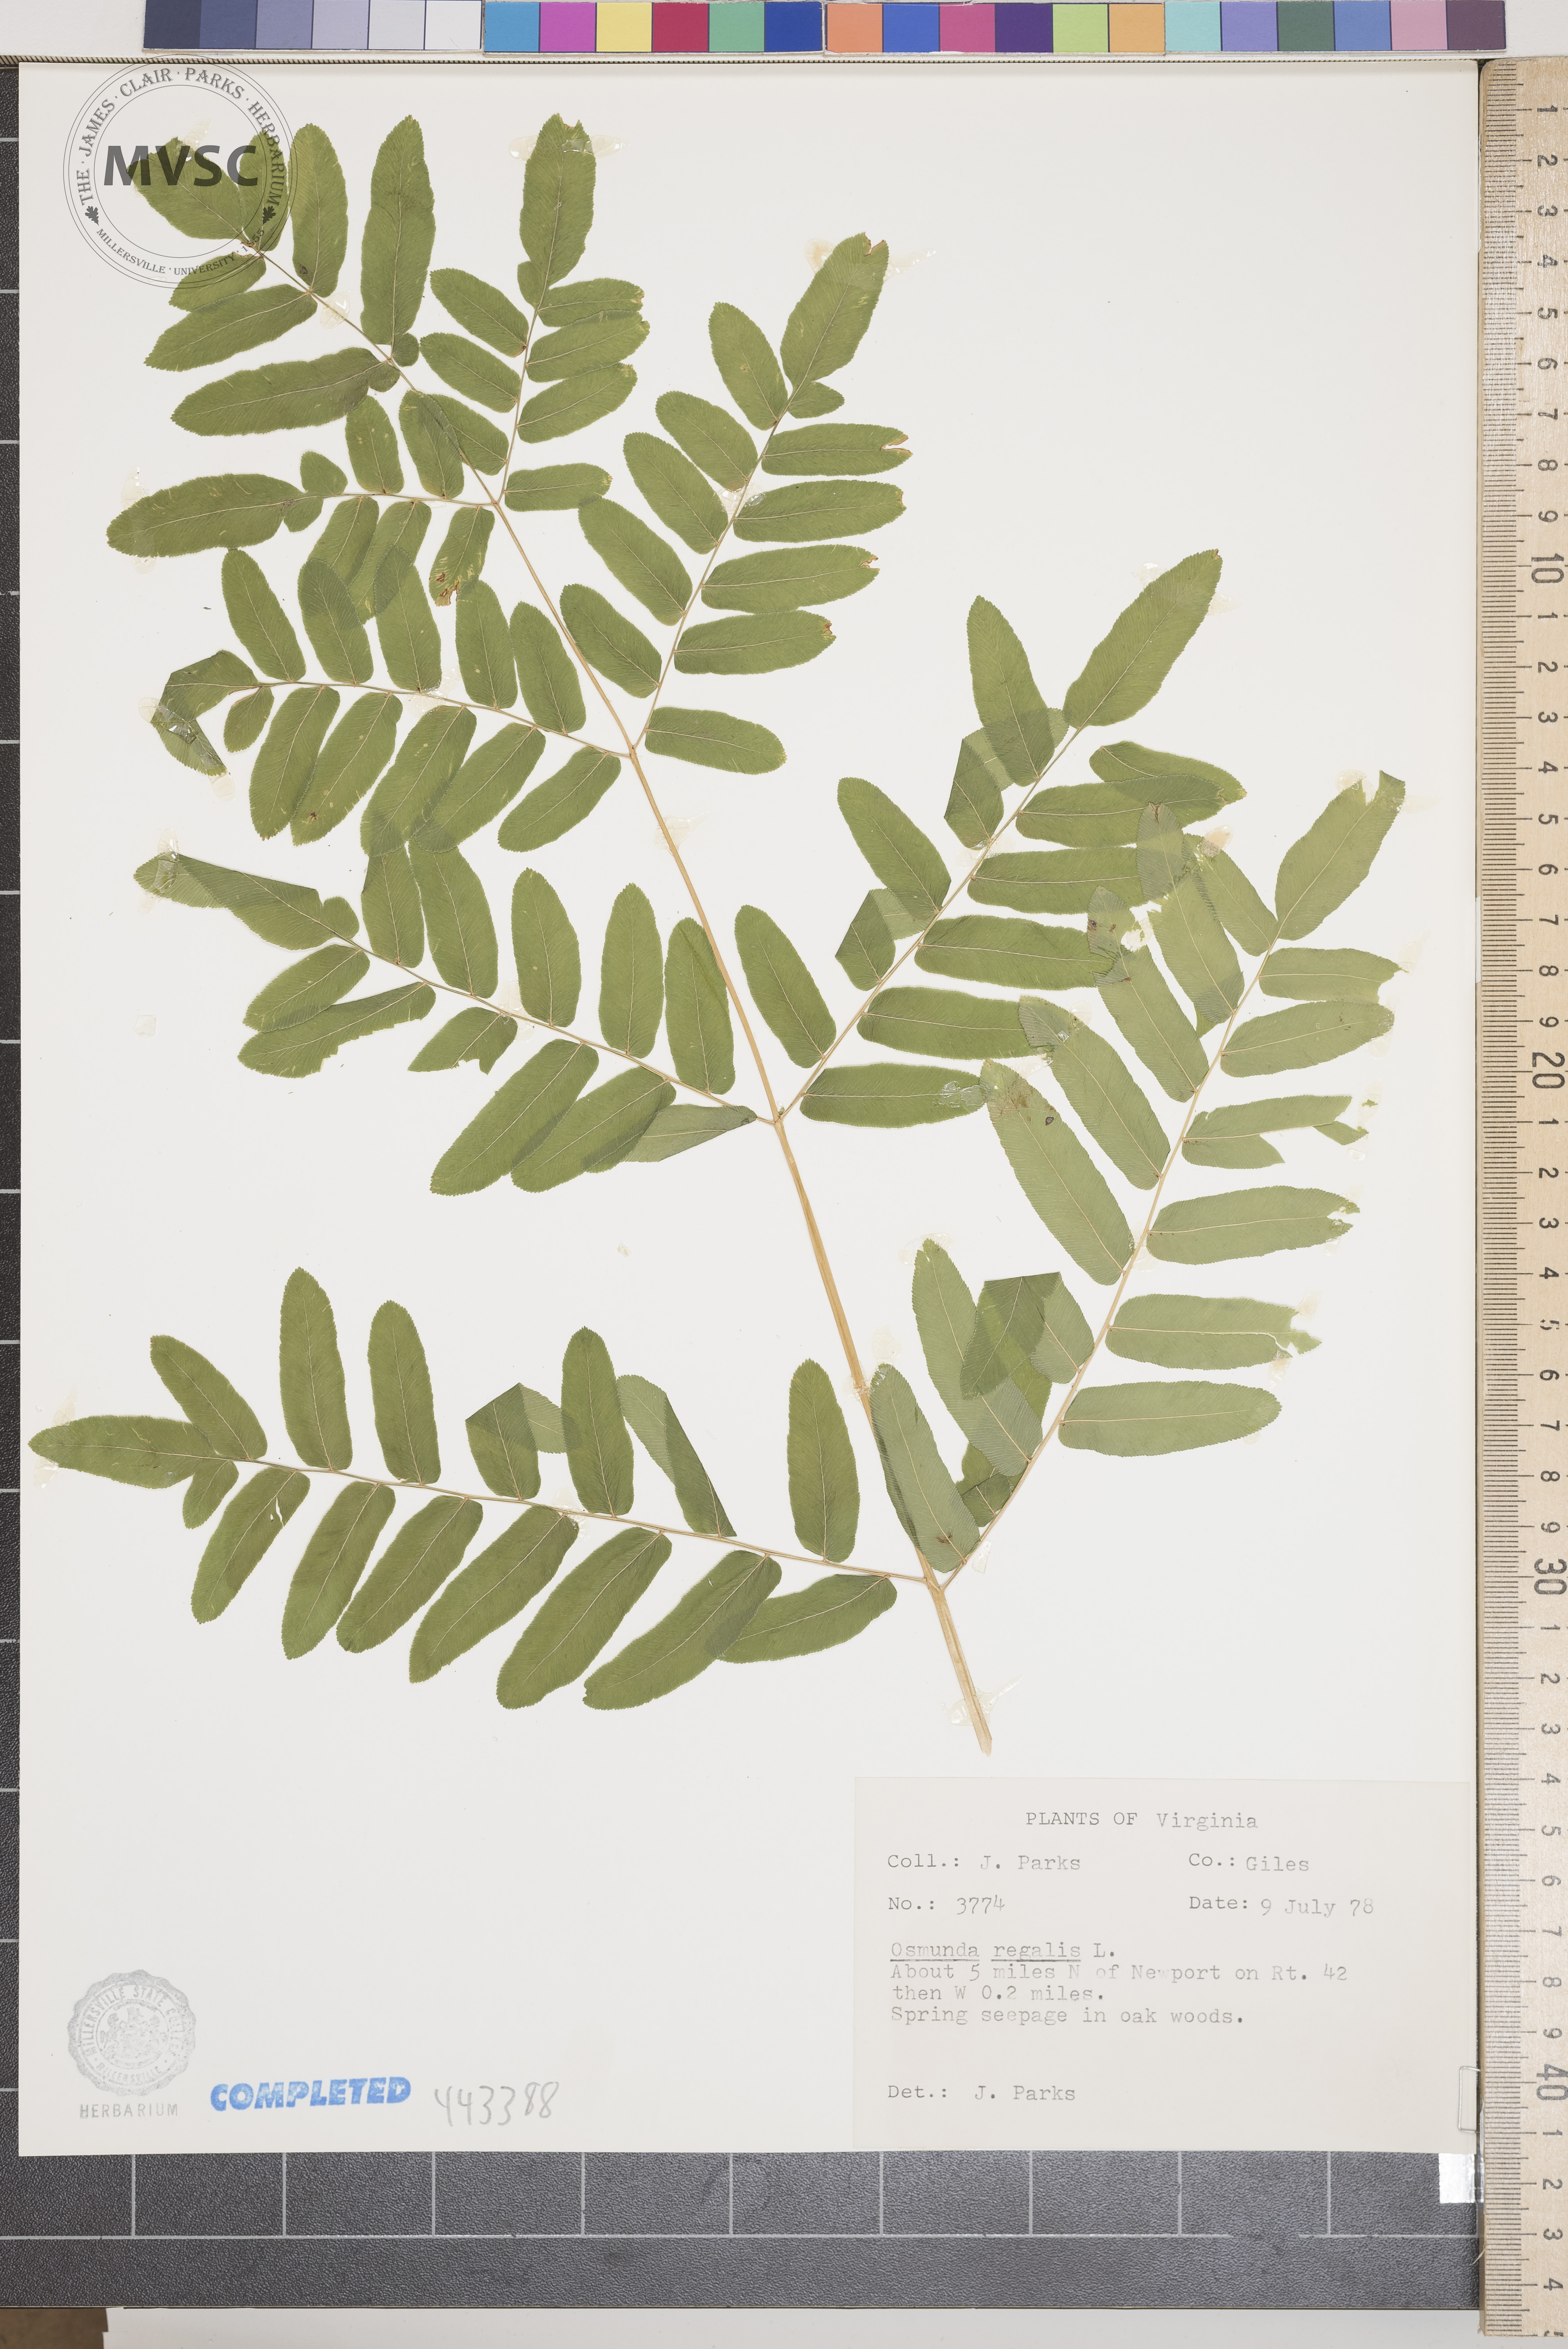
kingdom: Plantae
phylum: Tracheophyta
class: Polypodiopsida
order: Osmundales
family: Osmundaceae
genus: Osmunda
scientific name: Osmunda regalis
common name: Royal fern
